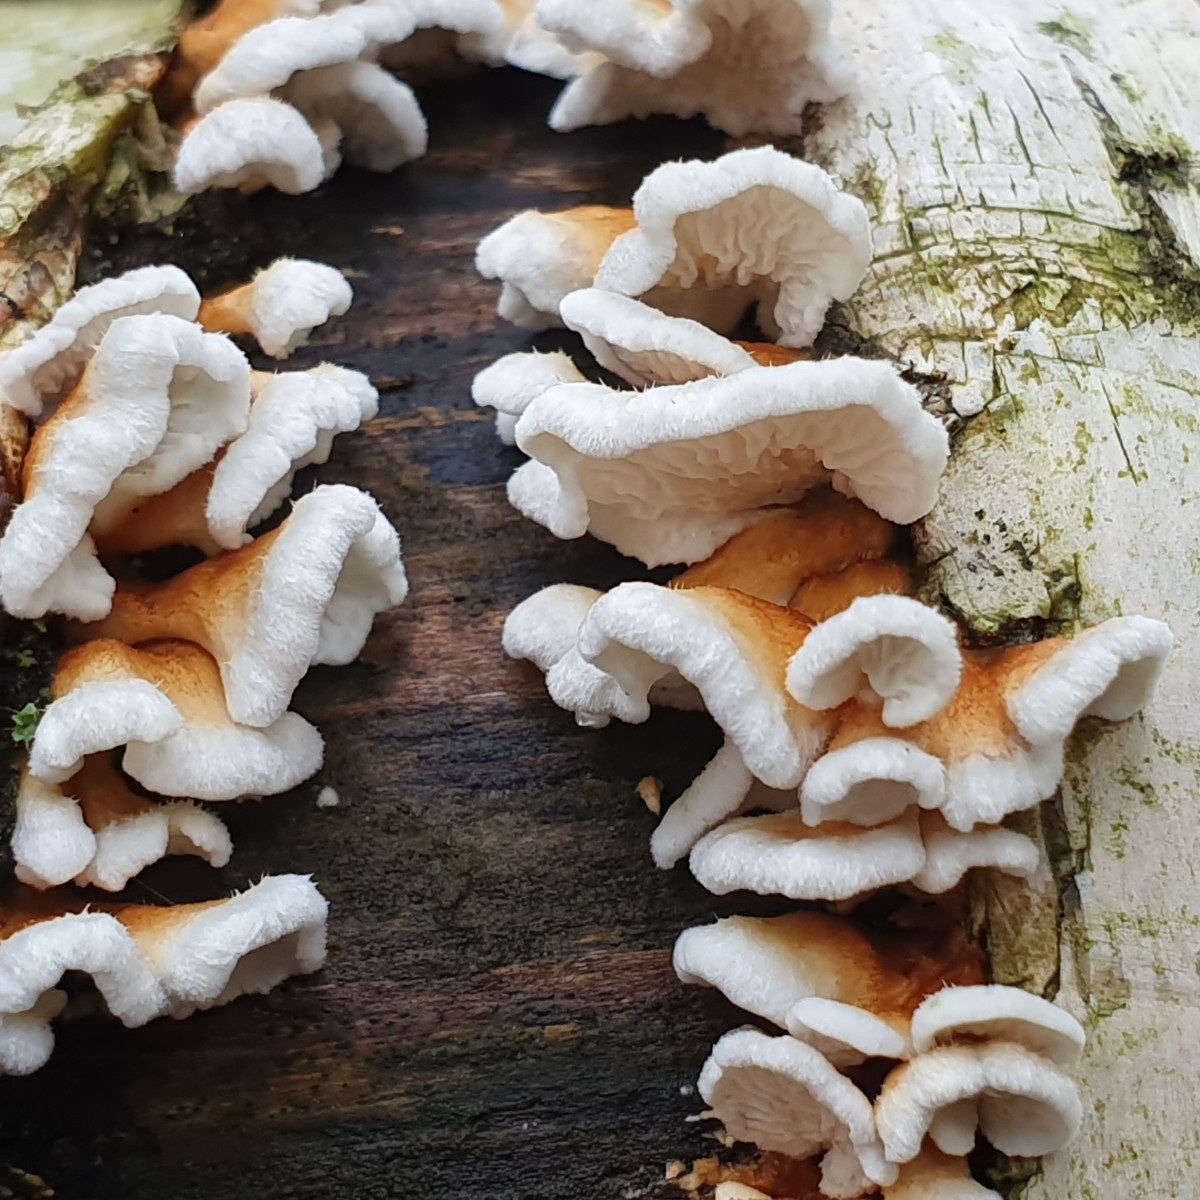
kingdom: Fungi
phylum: Basidiomycota
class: Agaricomycetes
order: Amylocorticiales
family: Amylocorticiaceae
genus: Plicaturopsis
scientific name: Plicaturopsis crispa
